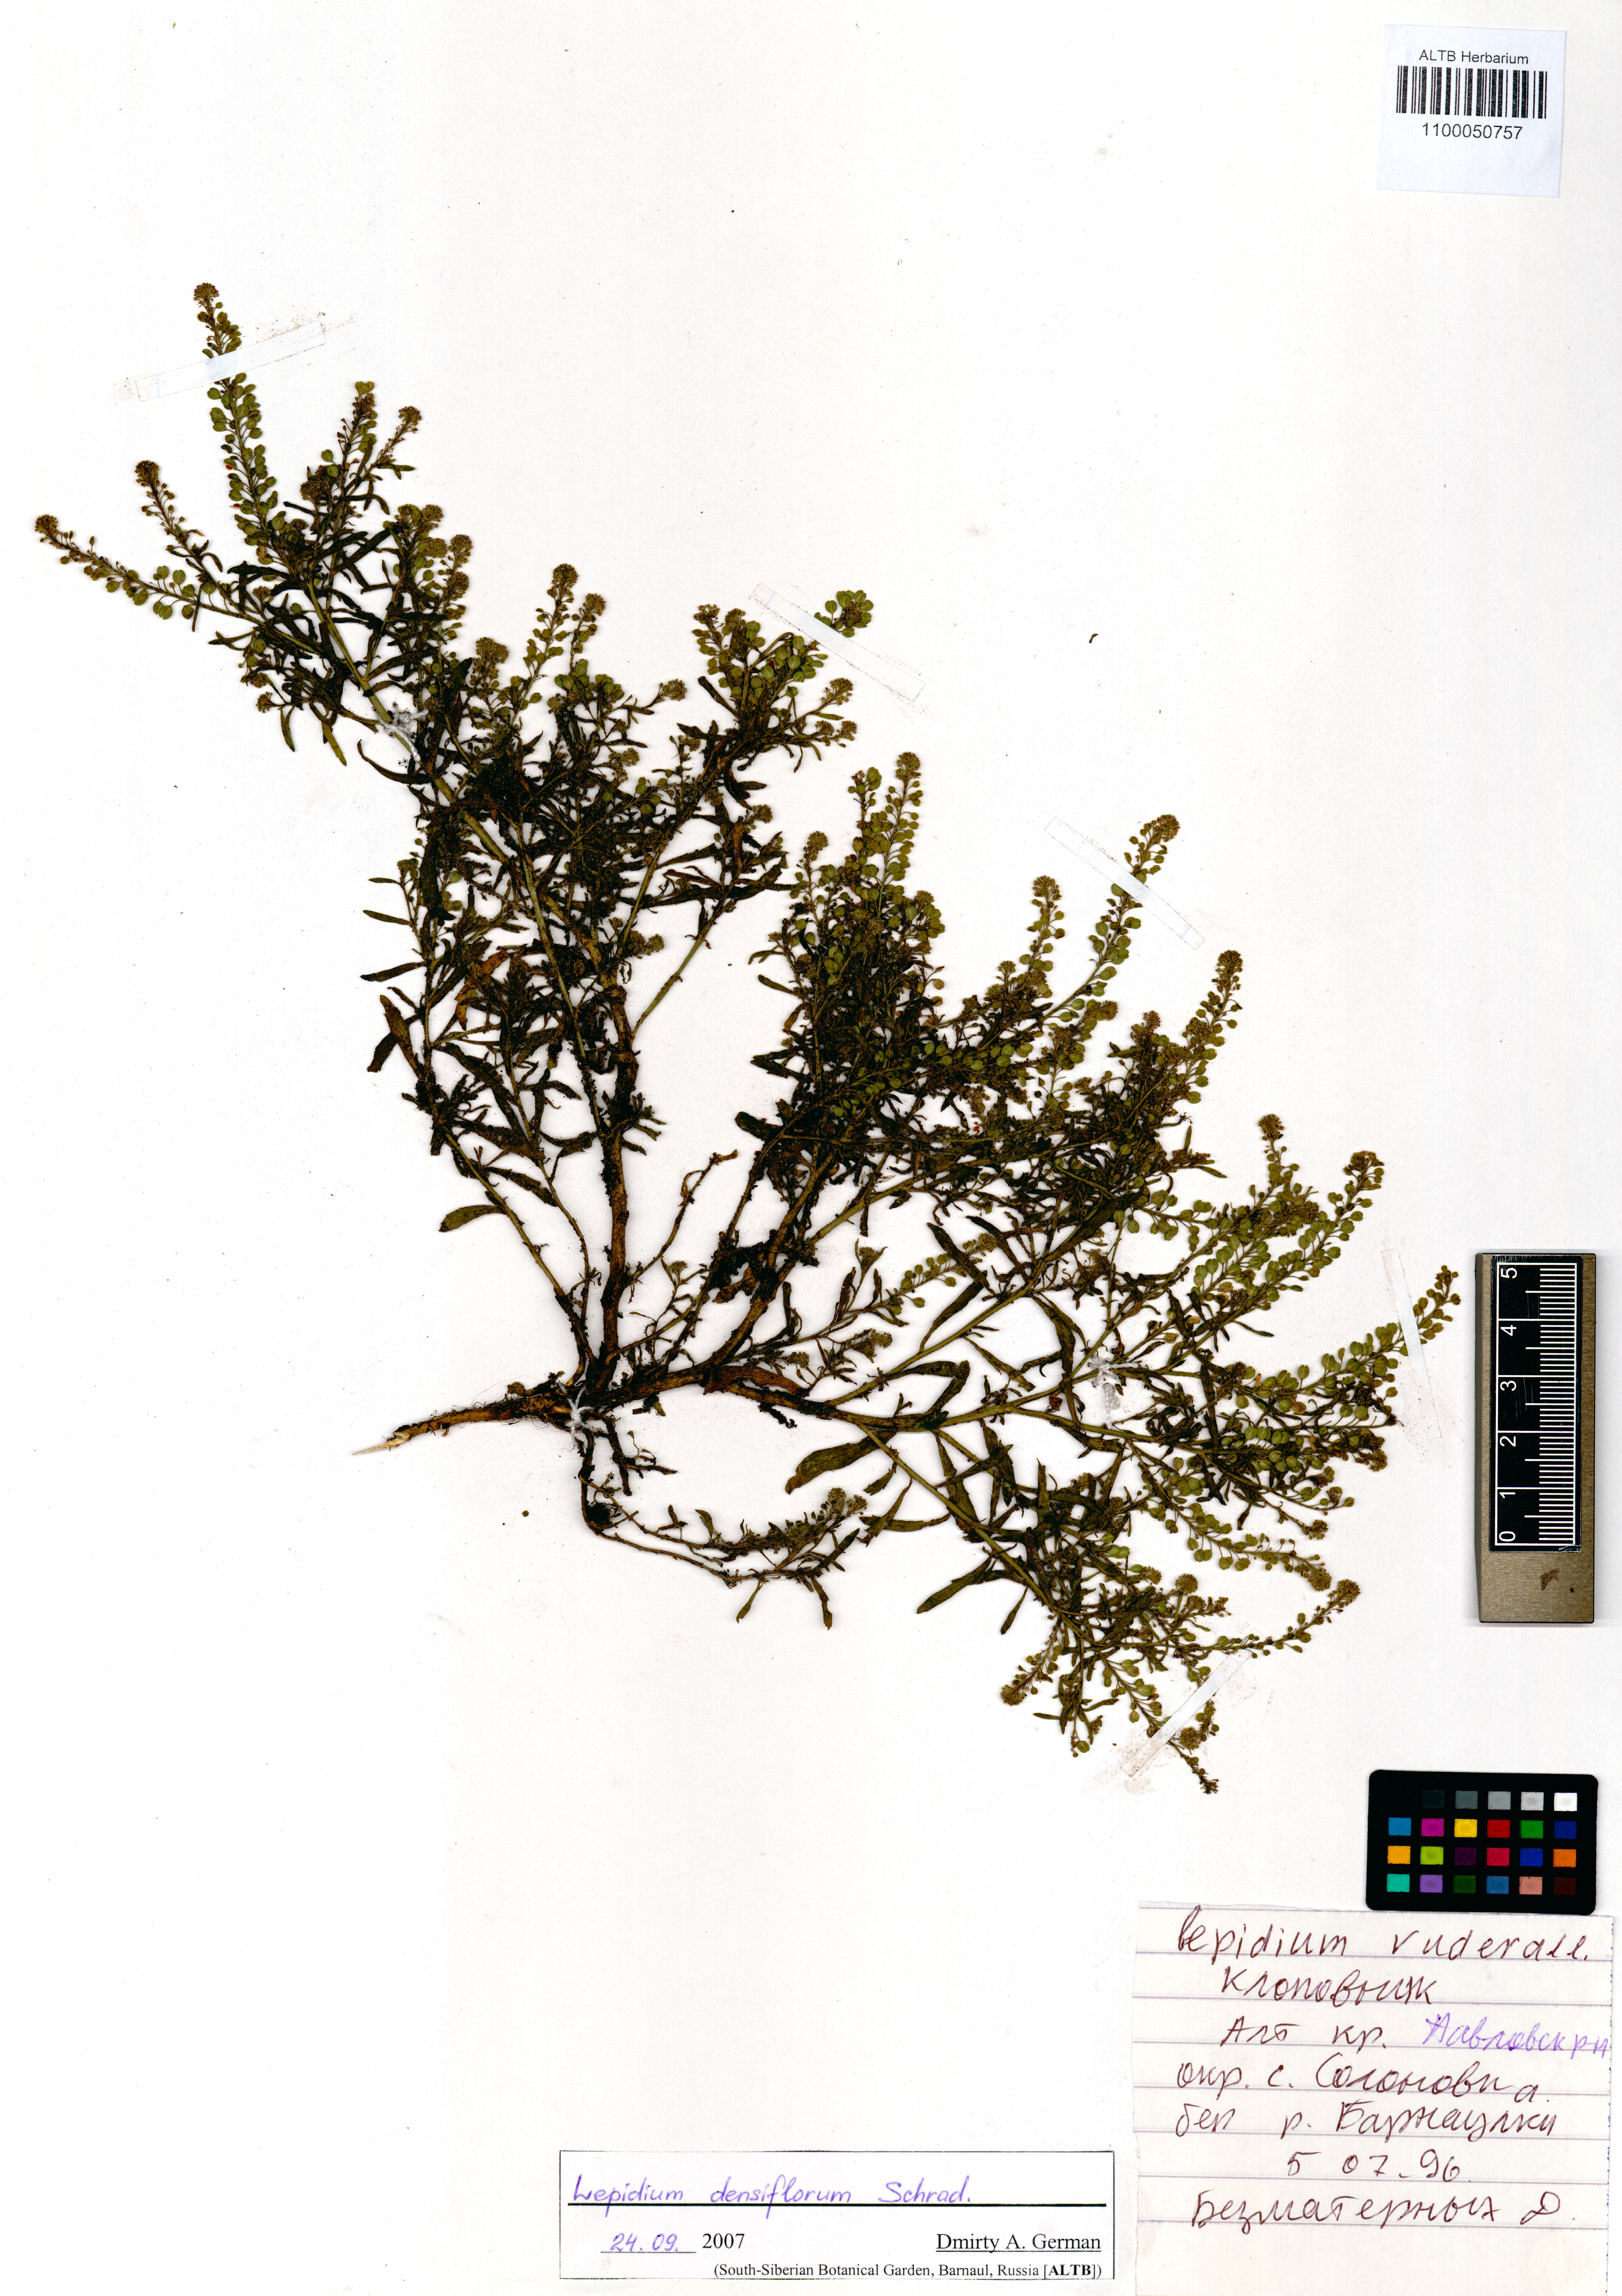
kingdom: Plantae
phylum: Tracheophyta
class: Magnoliopsida
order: Brassicales
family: Brassicaceae
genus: Lepidium
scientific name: Lepidium densiflorum
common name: Miner's pepperwort
